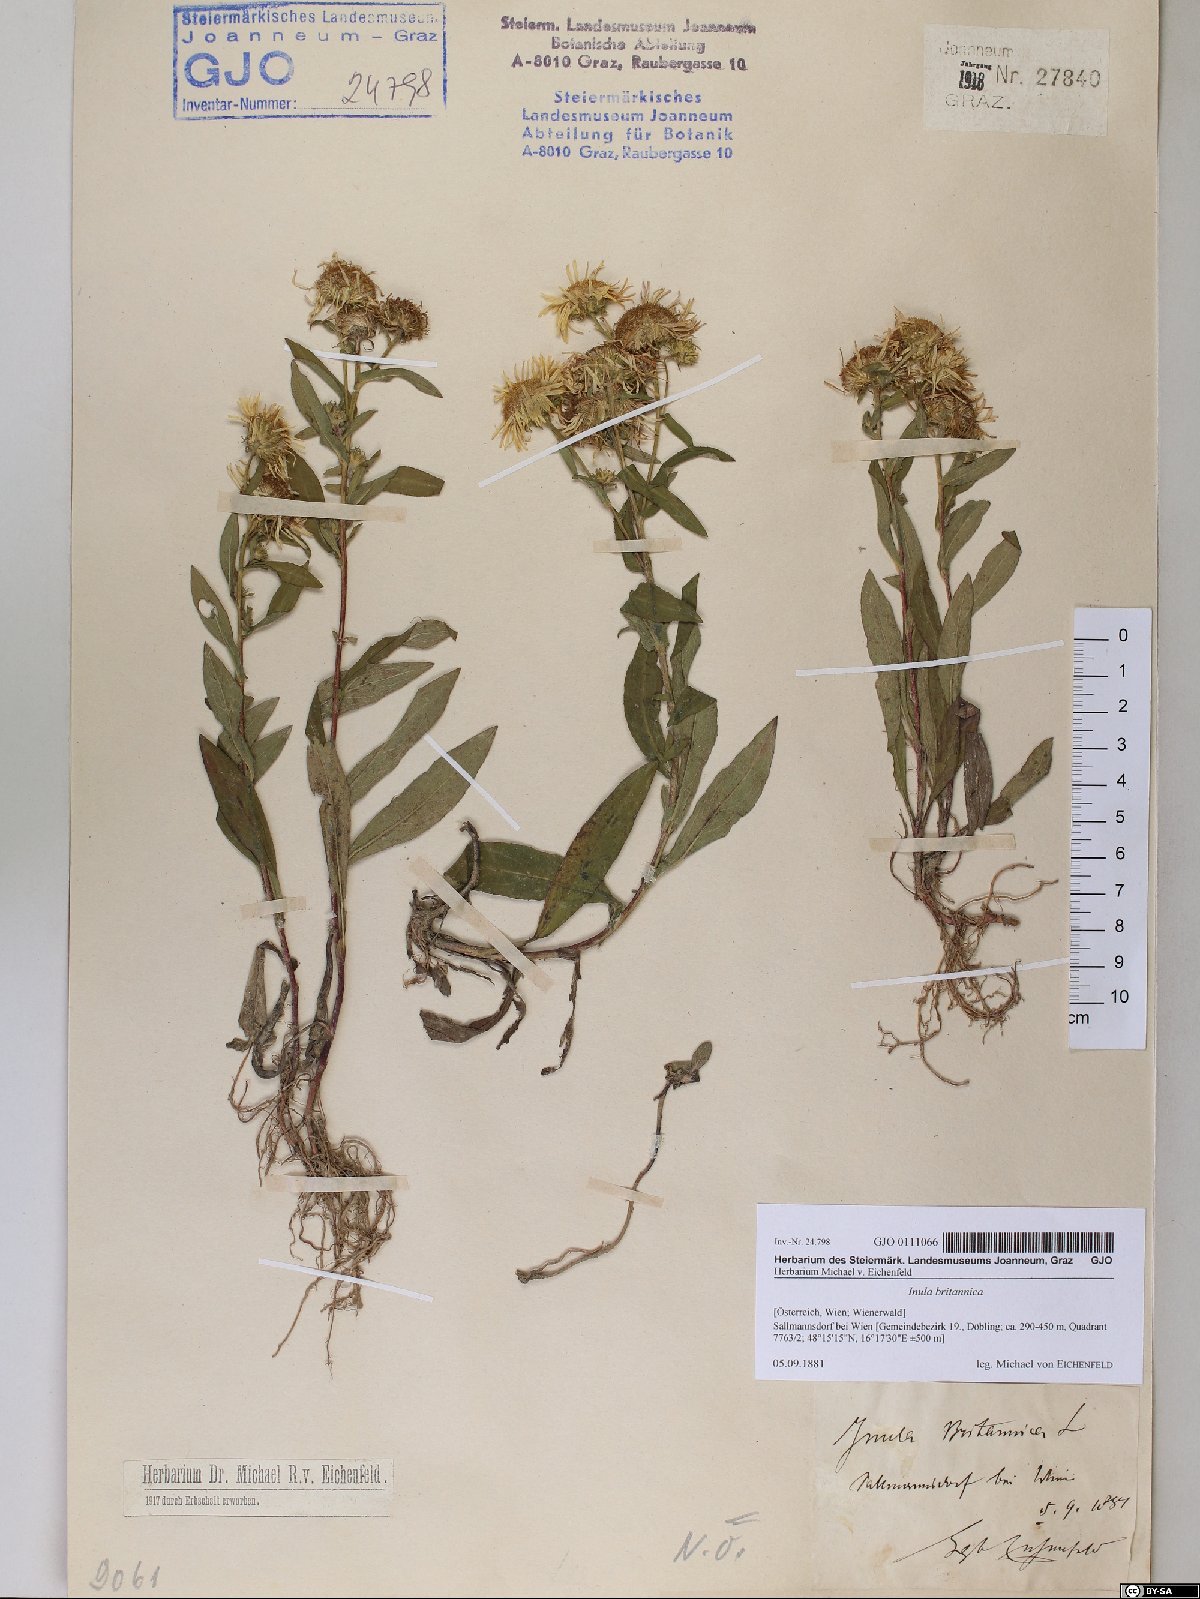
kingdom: Plantae
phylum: Tracheophyta
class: Magnoliopsida
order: Asterales
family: Asteraceae
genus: Pentanema
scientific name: Pentanema britannicum
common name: British elecampane
